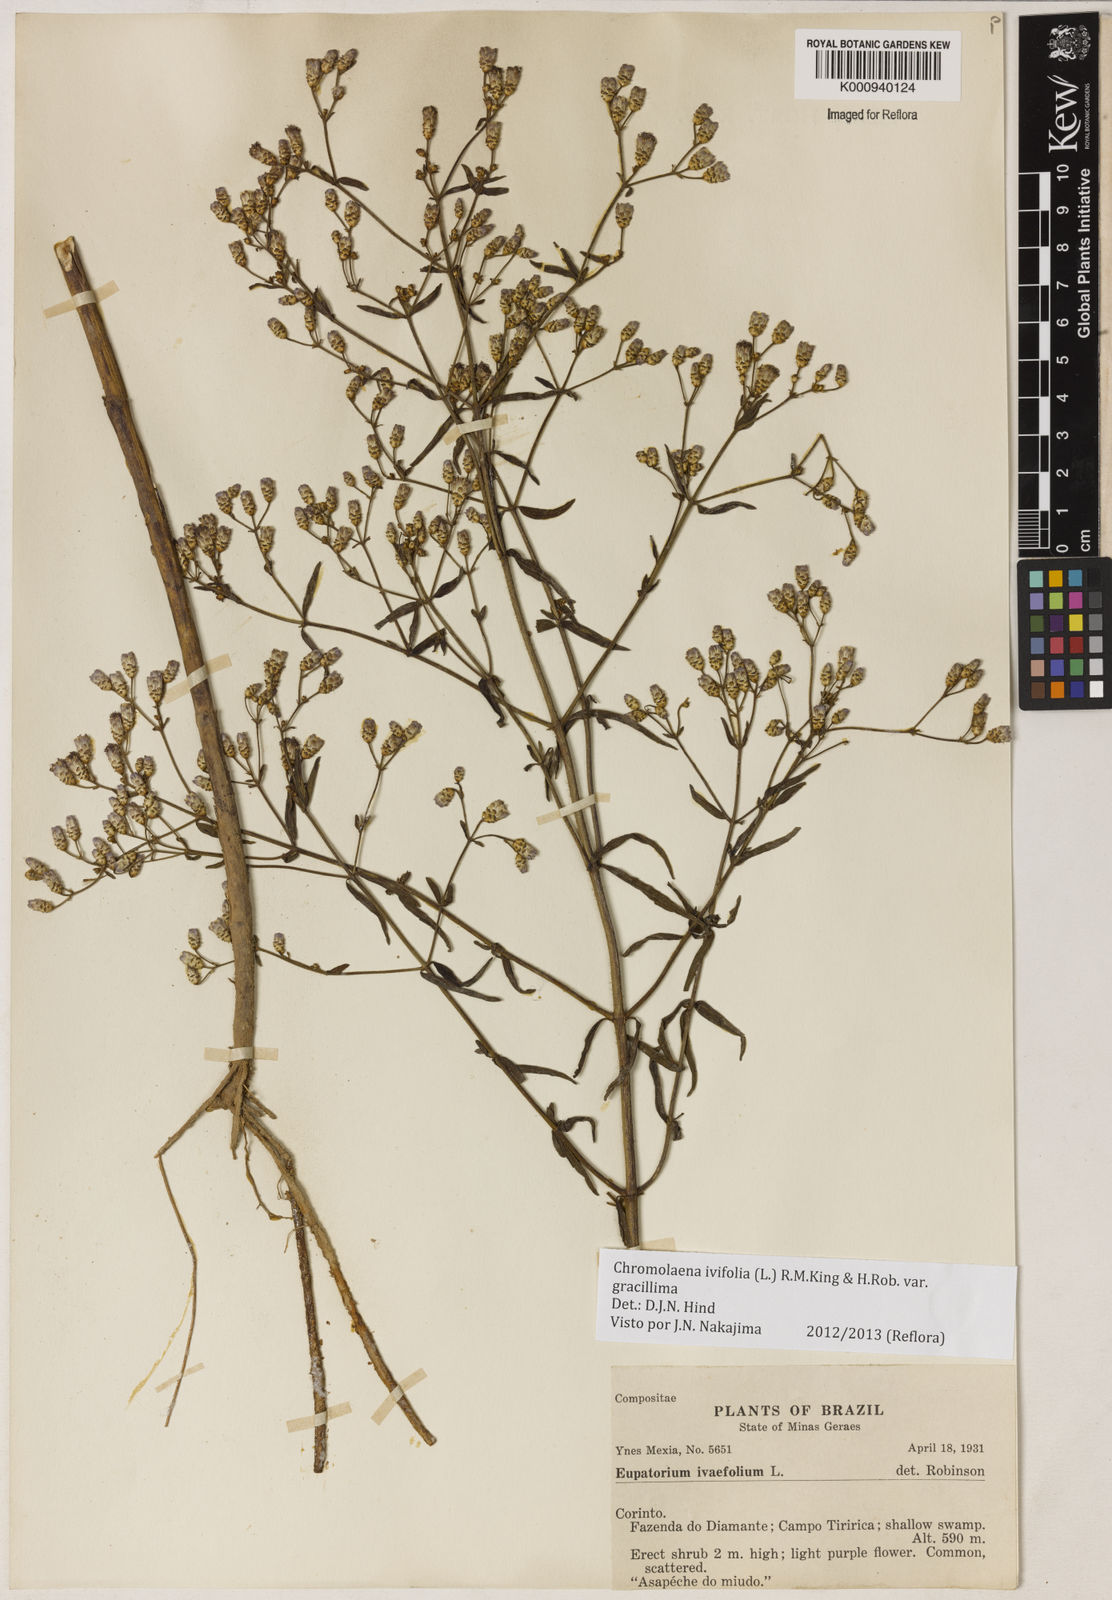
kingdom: Plantae
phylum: Tracheophyta
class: Magnoliopsida
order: Asterales
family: Asteraceae
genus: Chromolaena
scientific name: Chromolaena ivifolia
